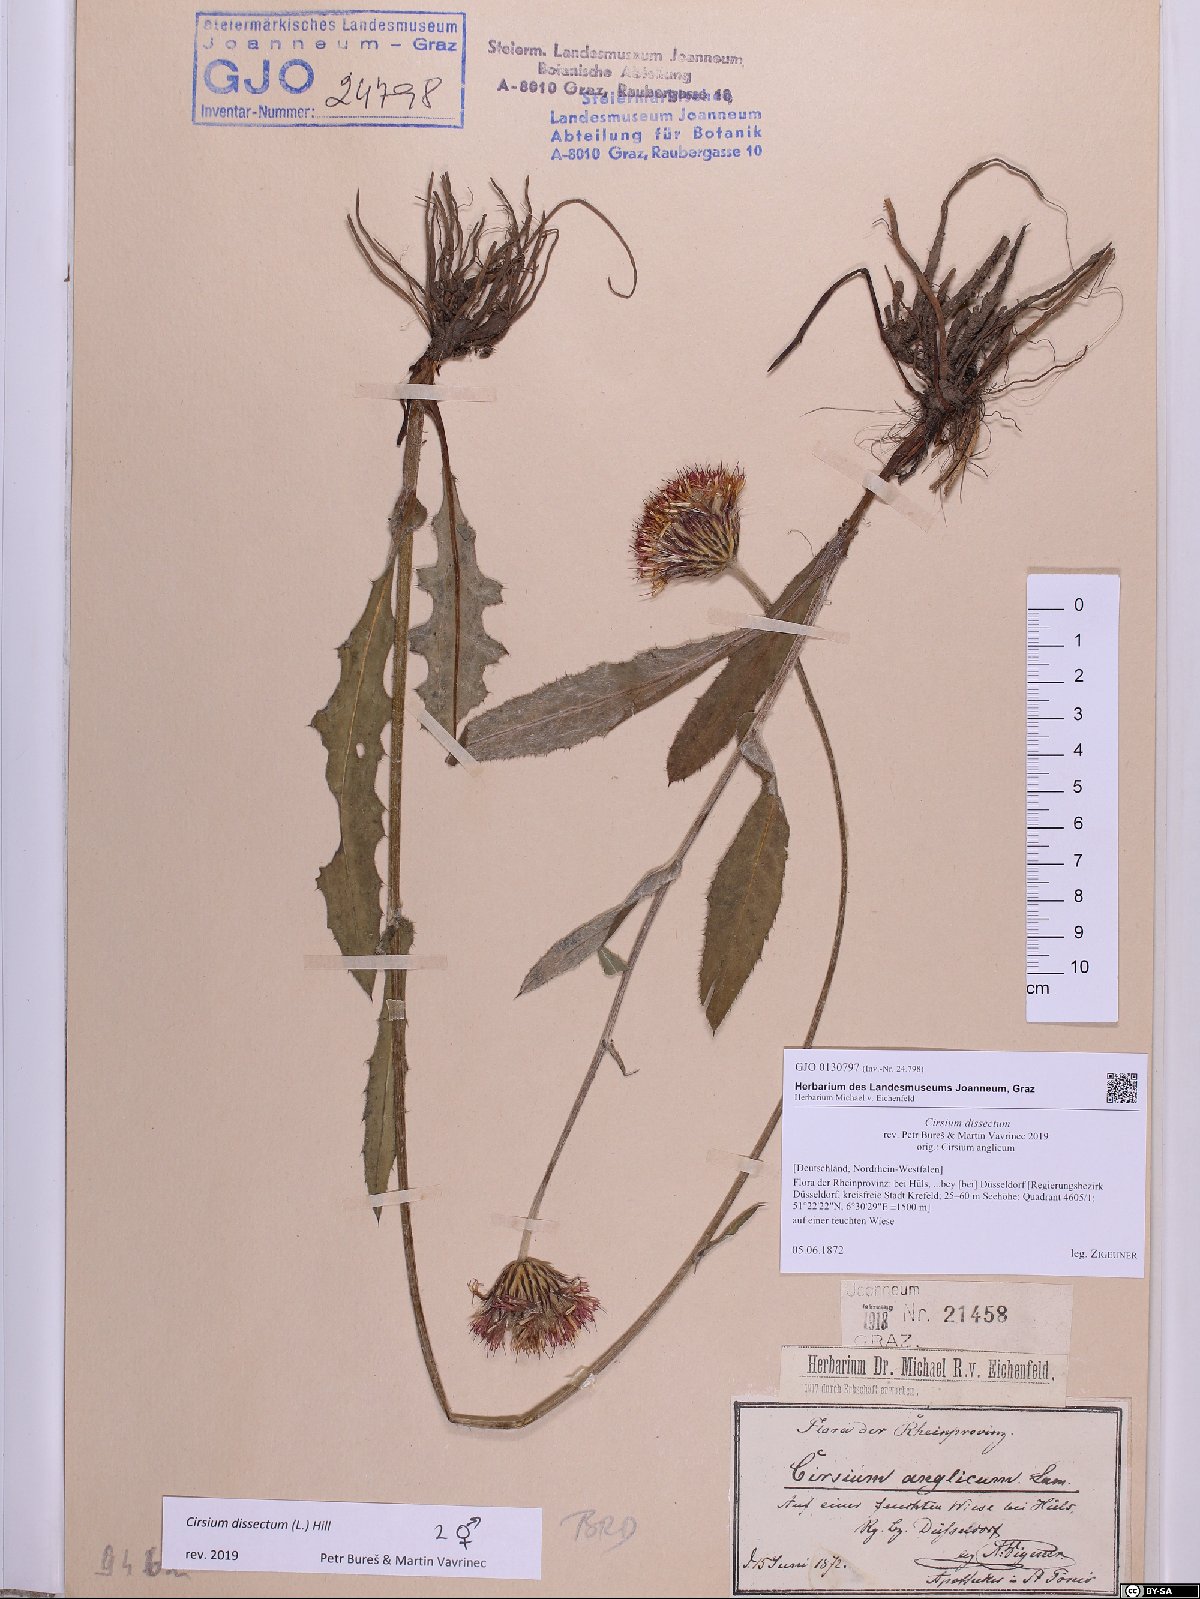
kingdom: Plantae
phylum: Tracheophyta
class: Magnoliopsida
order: Asterales
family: Asteraceae
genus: Cirsium
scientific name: Cirsium dissectum
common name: Meadow thistle
